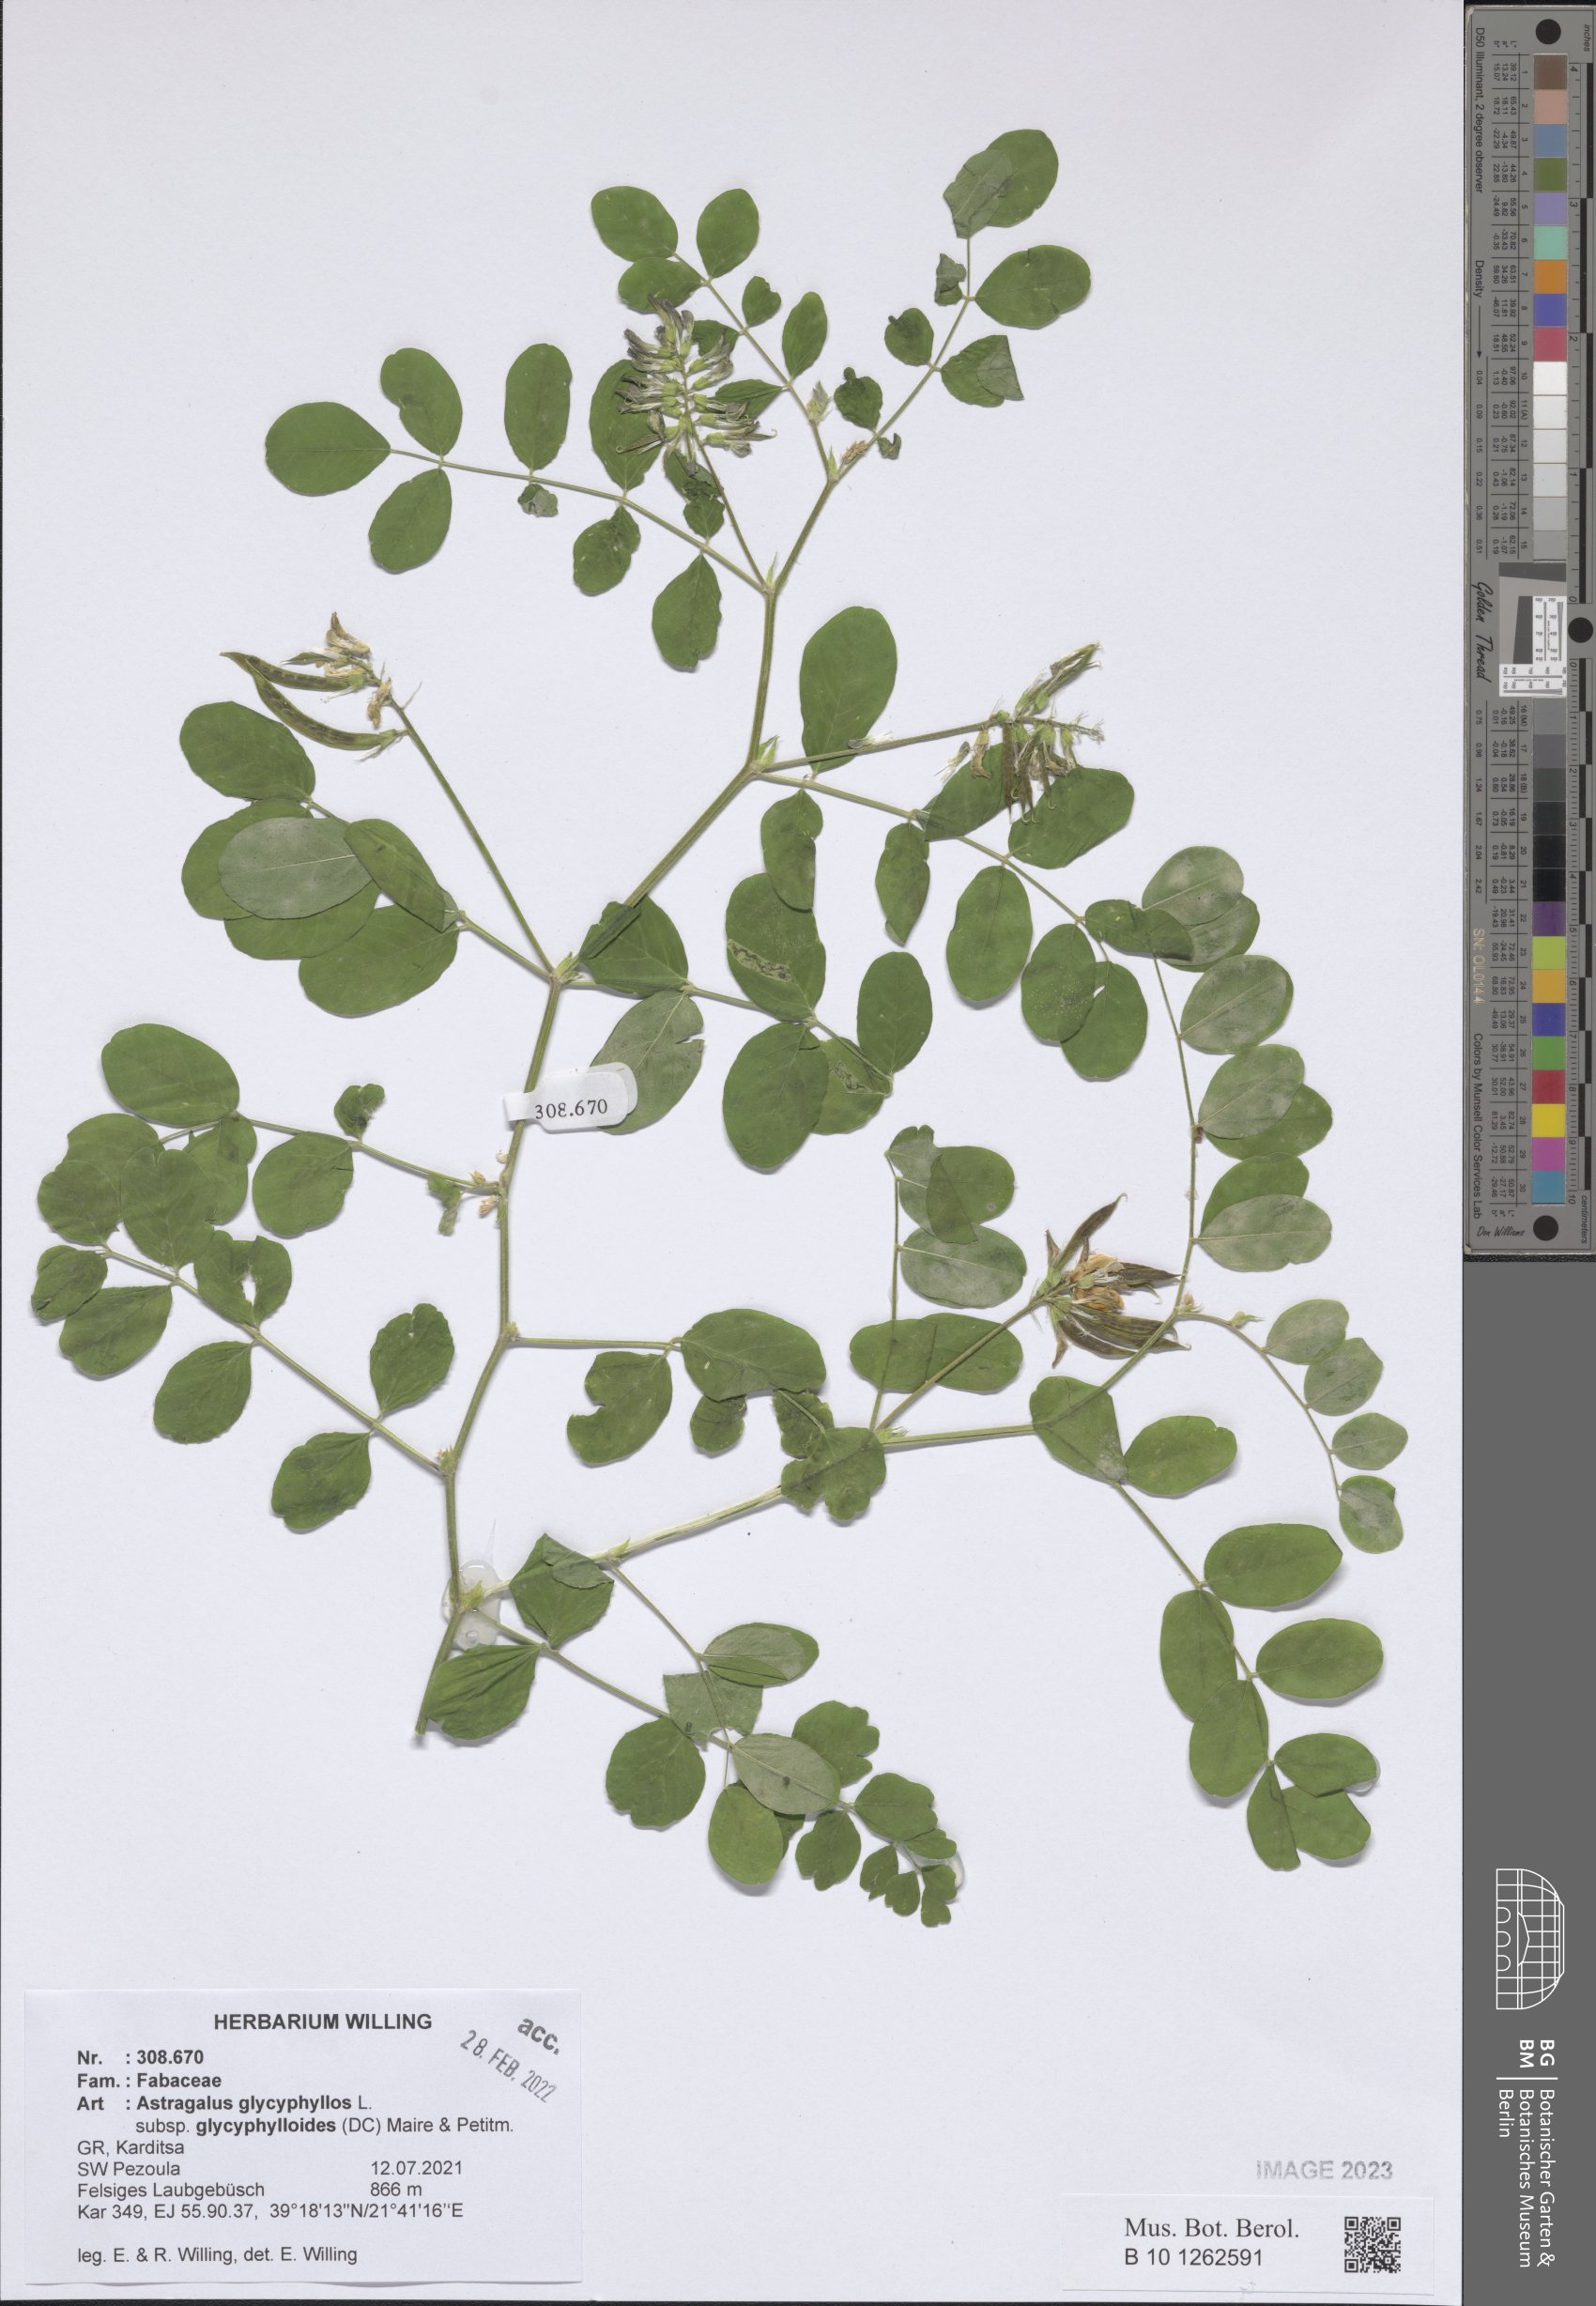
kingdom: Plantae
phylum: Tracheophyta
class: Magnoliopsida
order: Fabales
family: Fabaceae
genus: Astragalus
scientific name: Astragalus glycyphylloides
